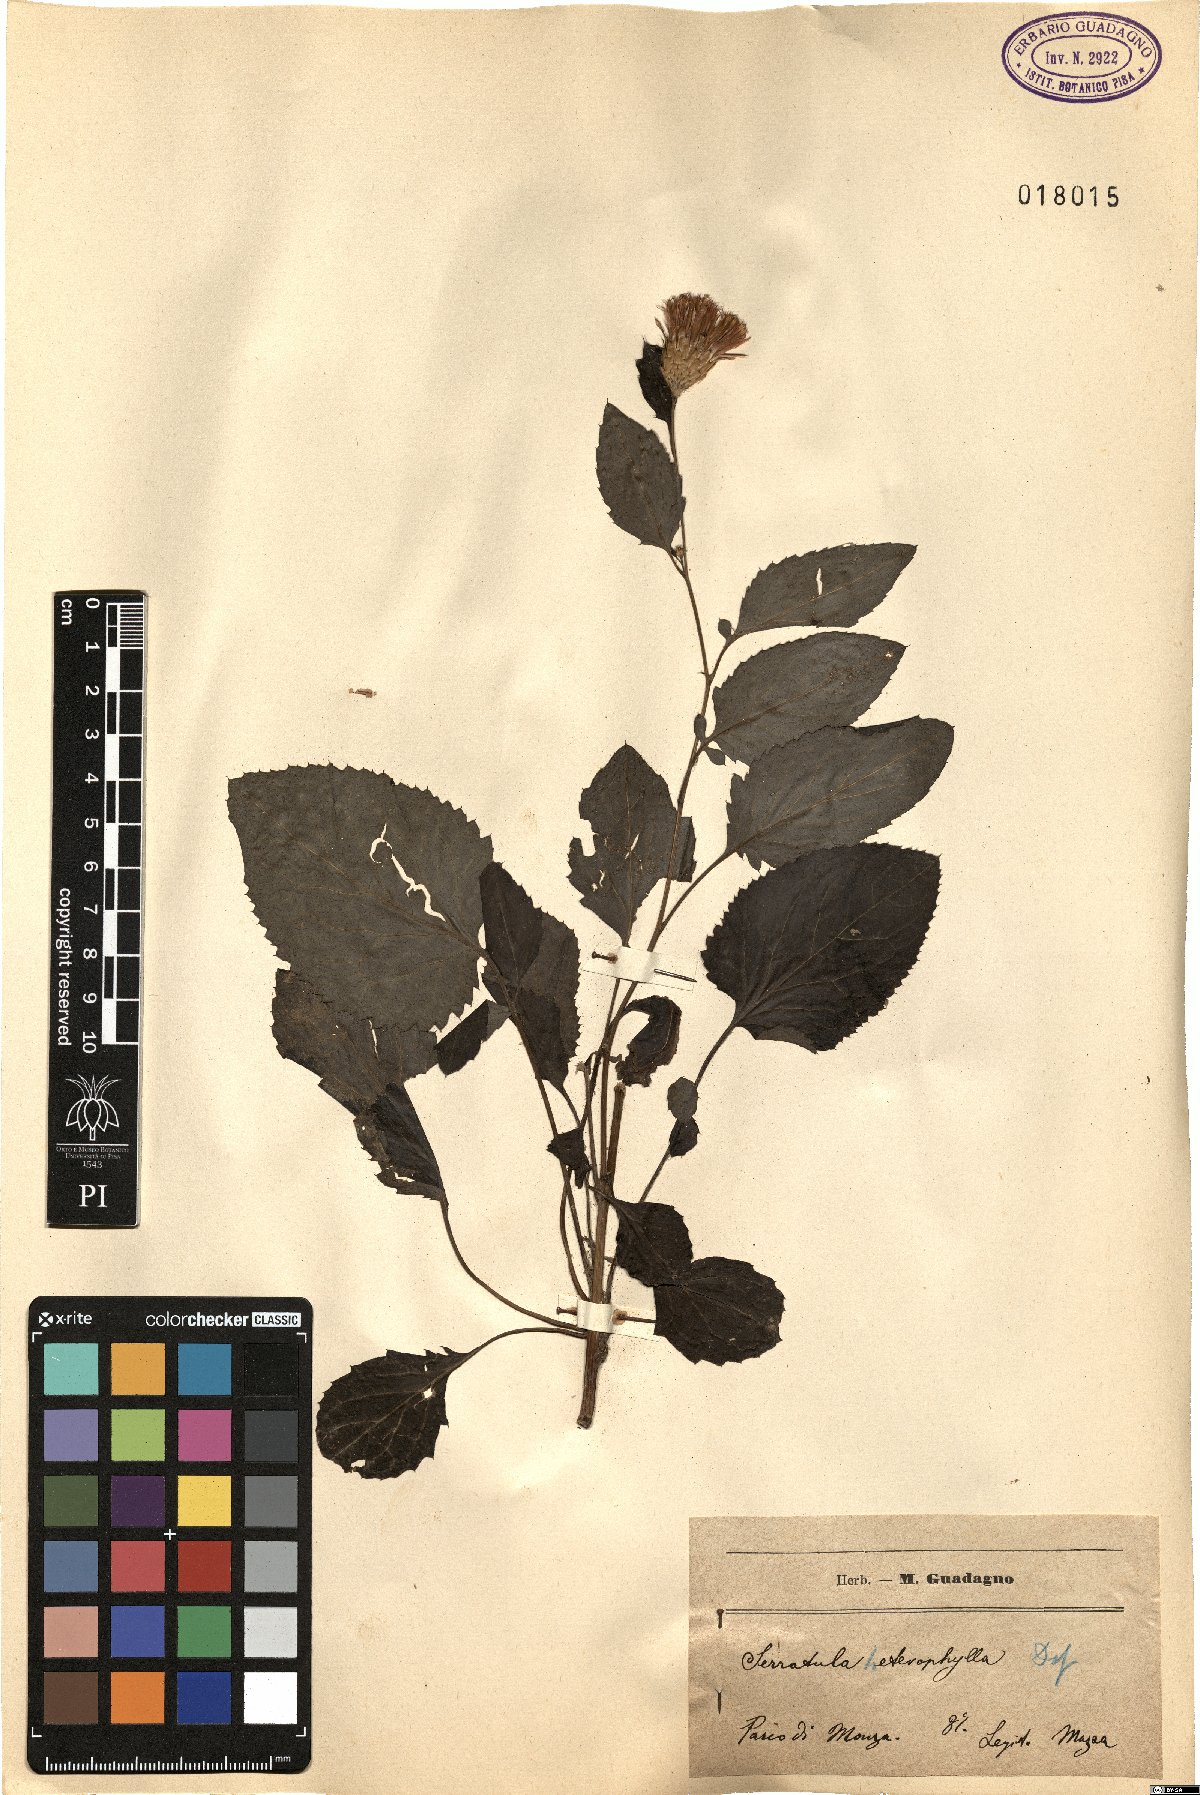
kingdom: Plantae
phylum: Tracheophyta
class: Magnoliopsida
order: Asterales
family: Asteraceae
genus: Serratula
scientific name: Serratula heterophilla
